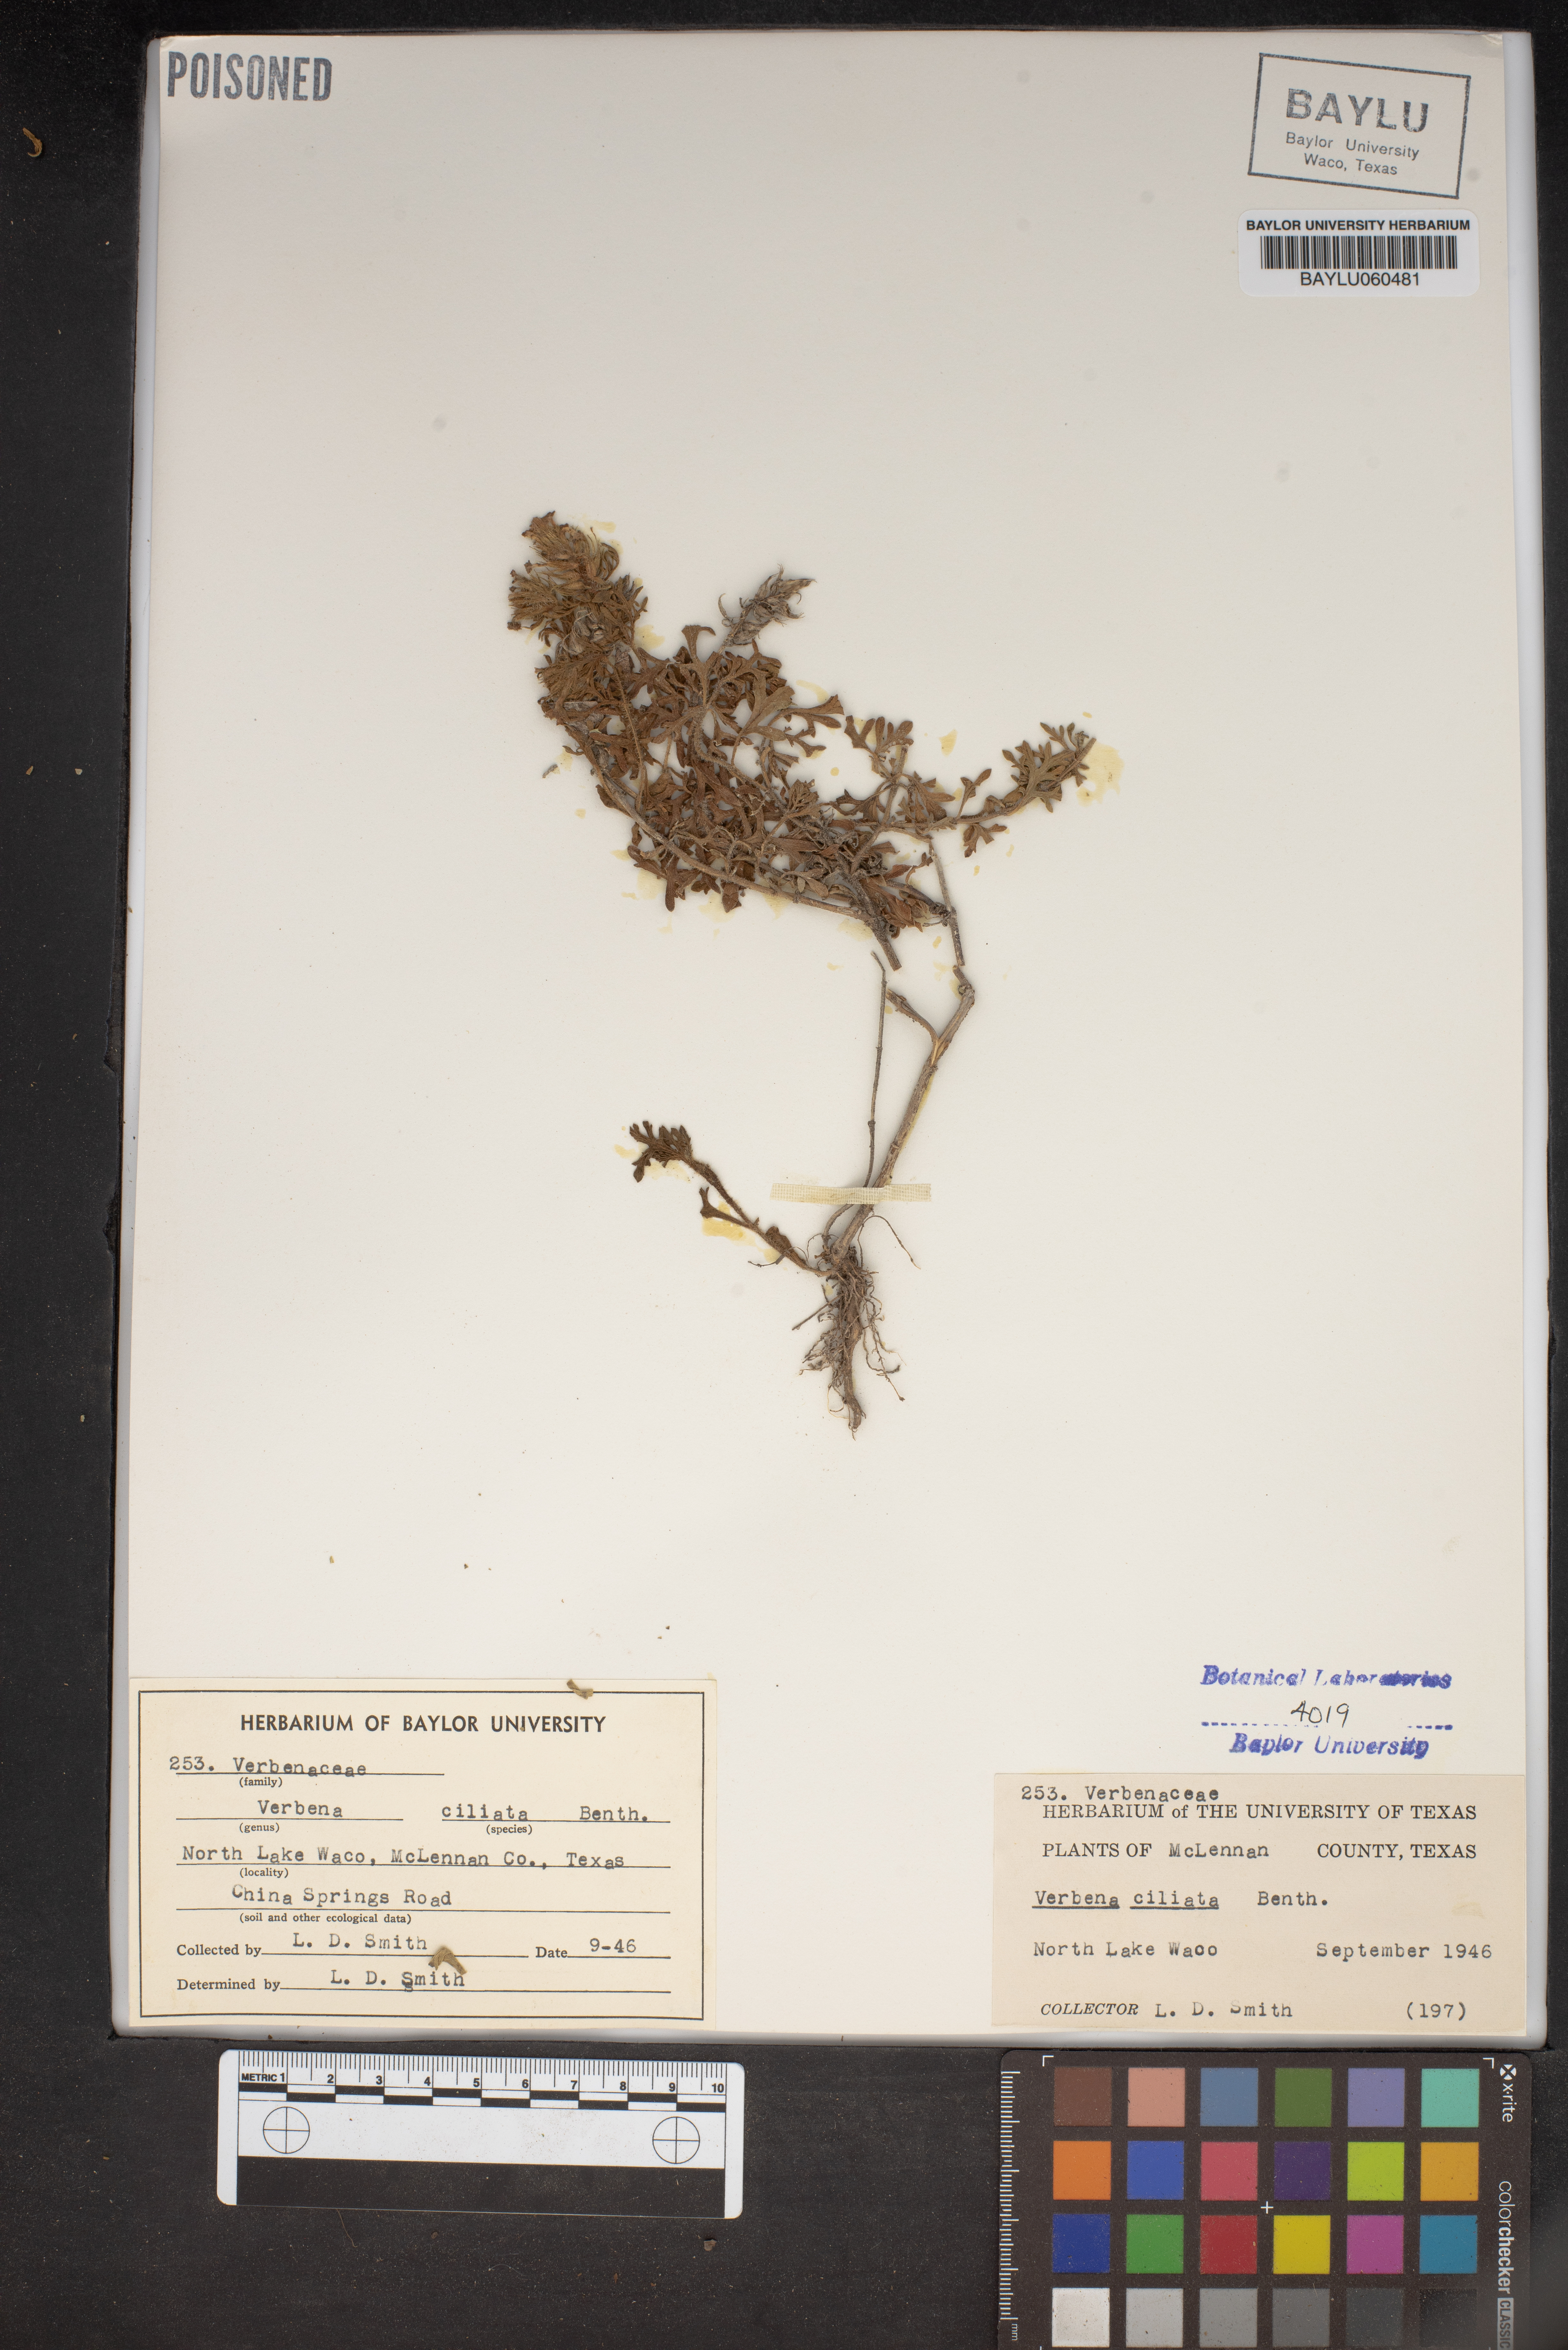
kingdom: Plantae
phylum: Tracheophyta
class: Magnoliopsida
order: Lamiales
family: Verbenaceae
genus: Verbena
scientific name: Verbena bipinnatifida
